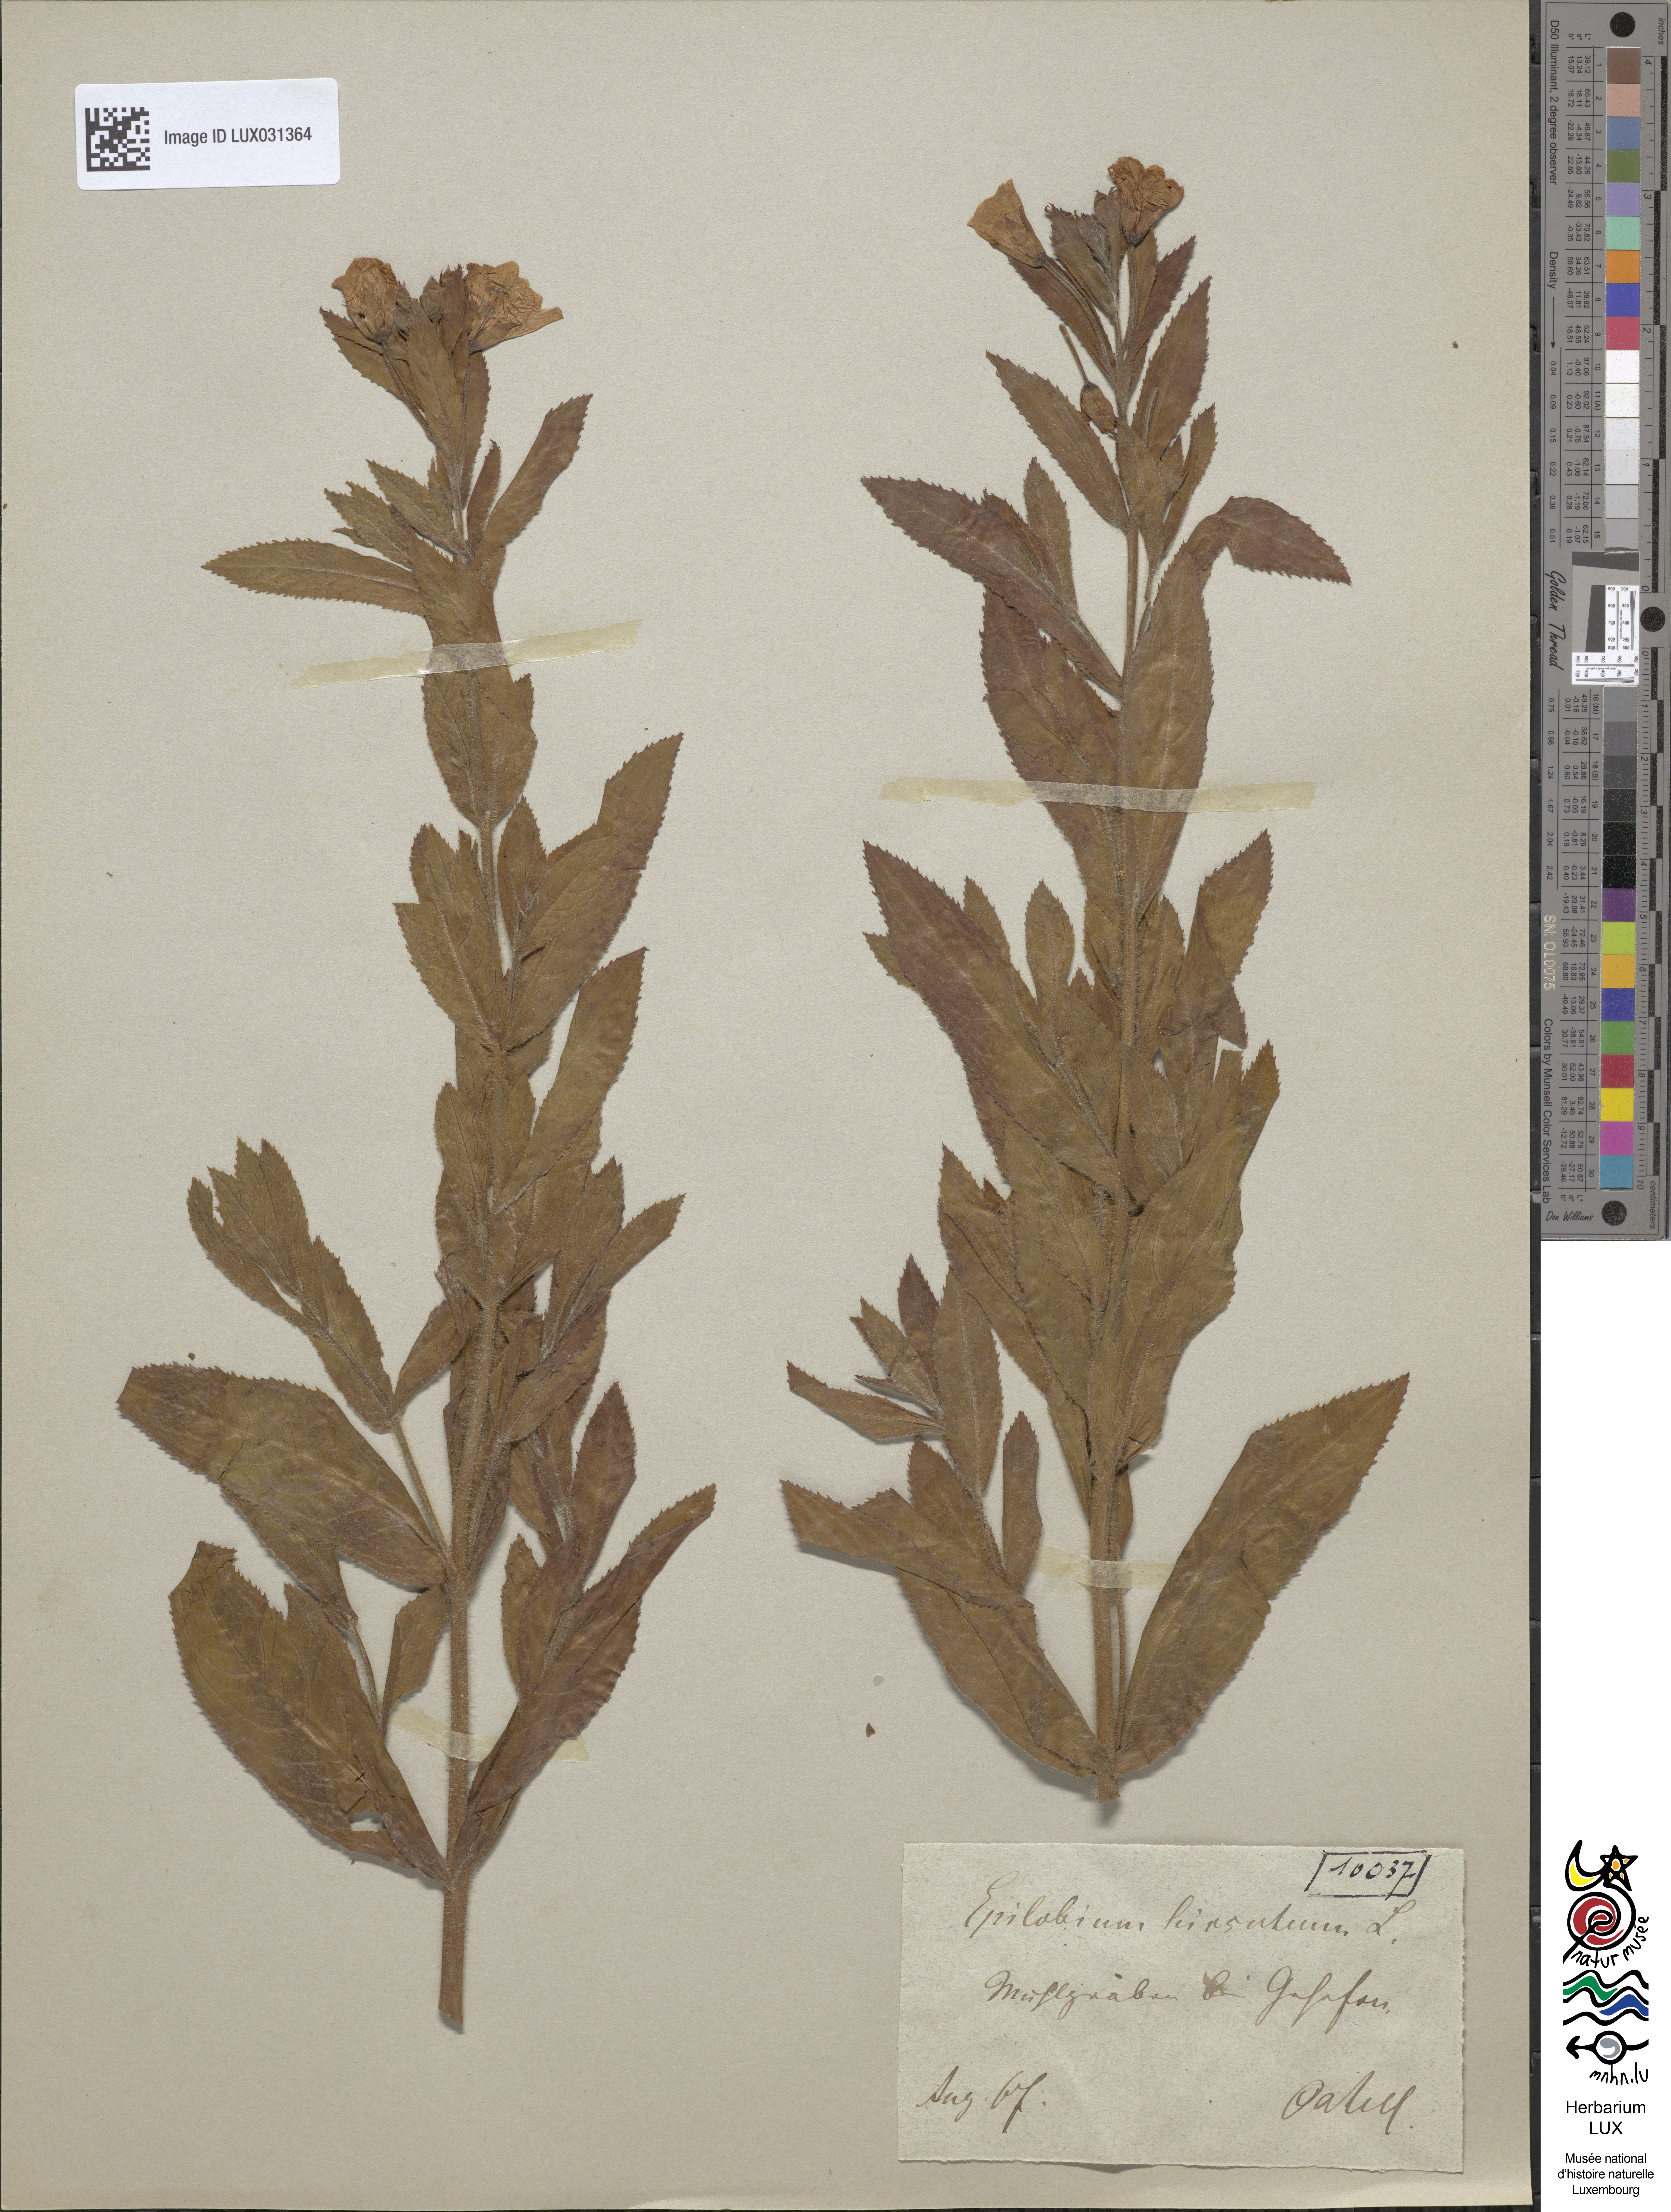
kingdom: Plantae
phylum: Tracheophyta
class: Magnoliopsida
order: Myrtales
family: Onagraceae
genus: Epilobium
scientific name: Epilobium hirsutum
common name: Great willowherb
